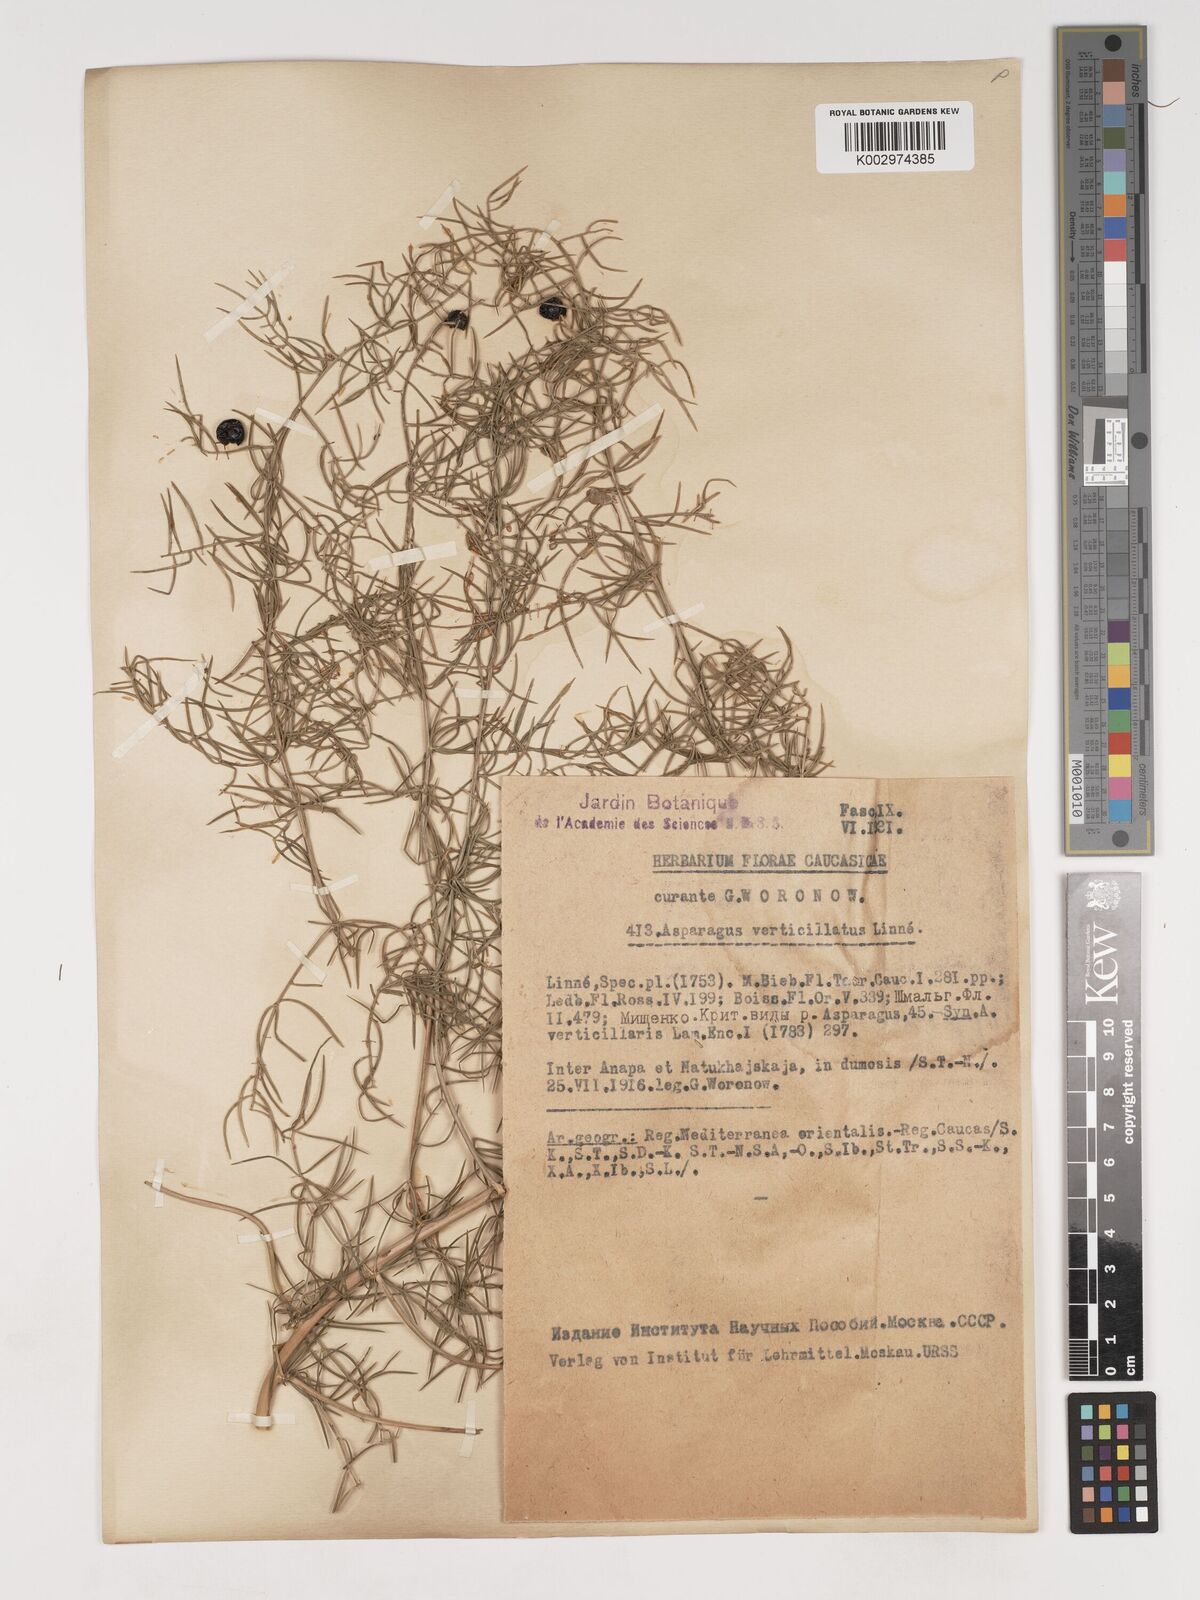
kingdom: Plantae
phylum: Tracheophyta
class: Liliopsida
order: Asparagales
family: Asparagaceae
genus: Asparagus
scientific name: Asparagus verticillatus
